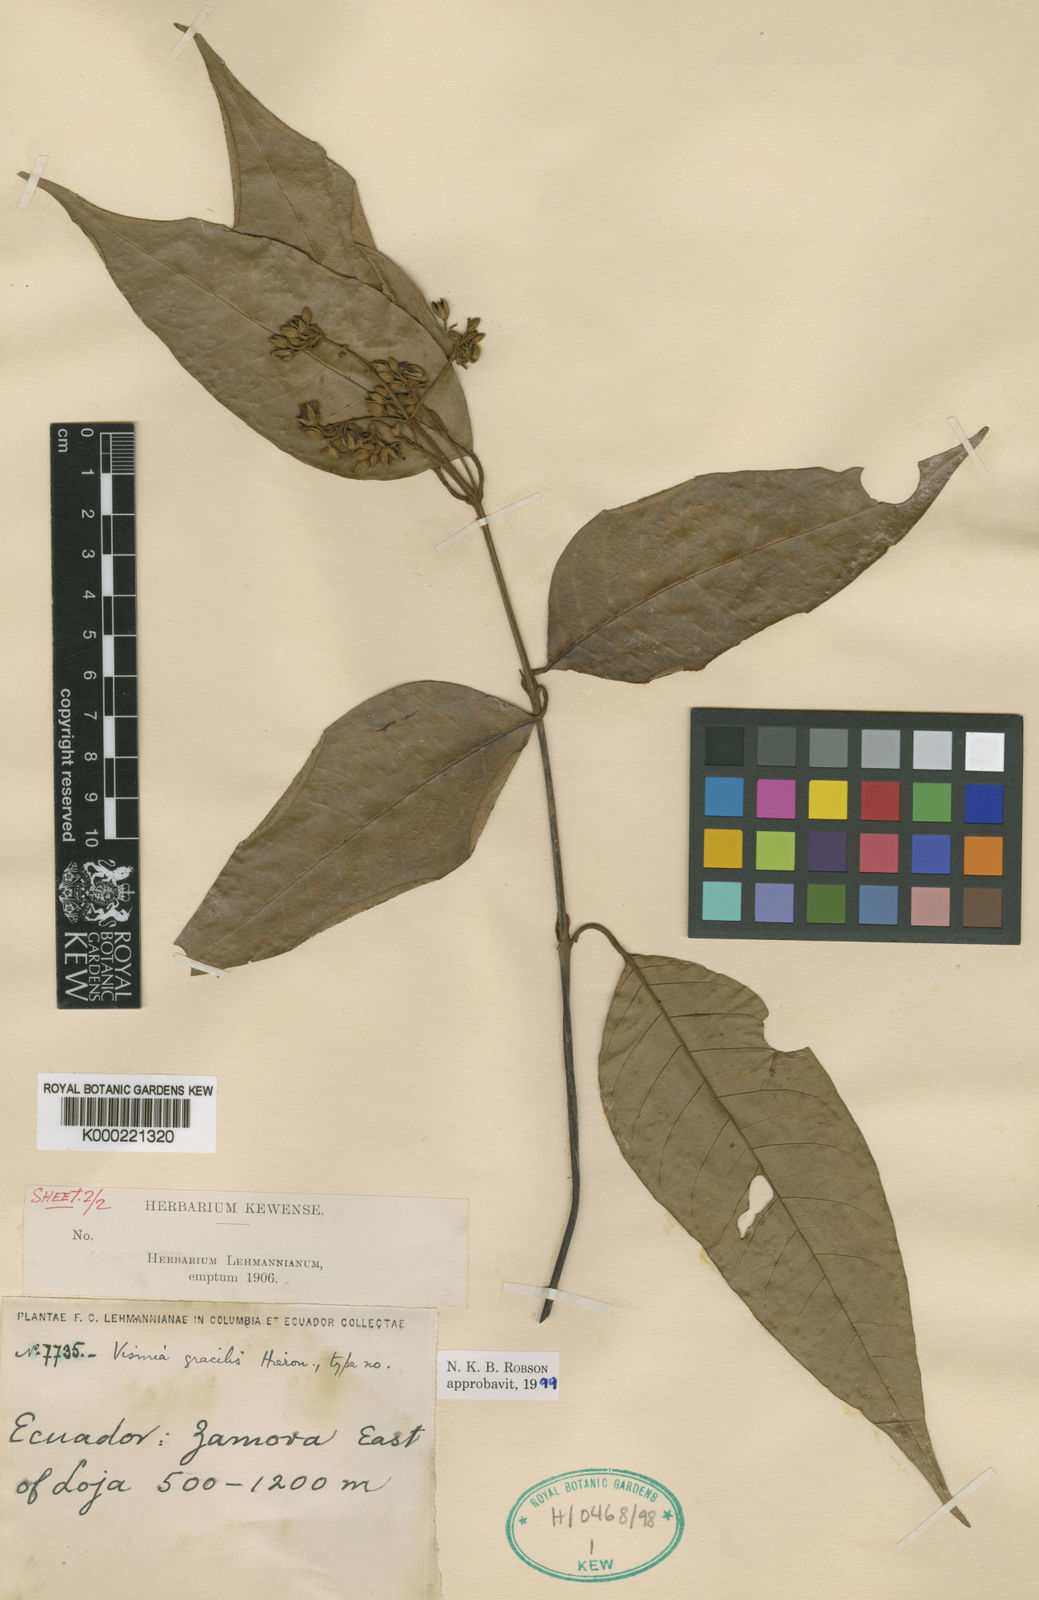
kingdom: Plantae
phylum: Tracheophyta
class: Magnoliopsida
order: Malpighiales
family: Hypericaceae
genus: Vismia
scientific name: Vismia gracilis
